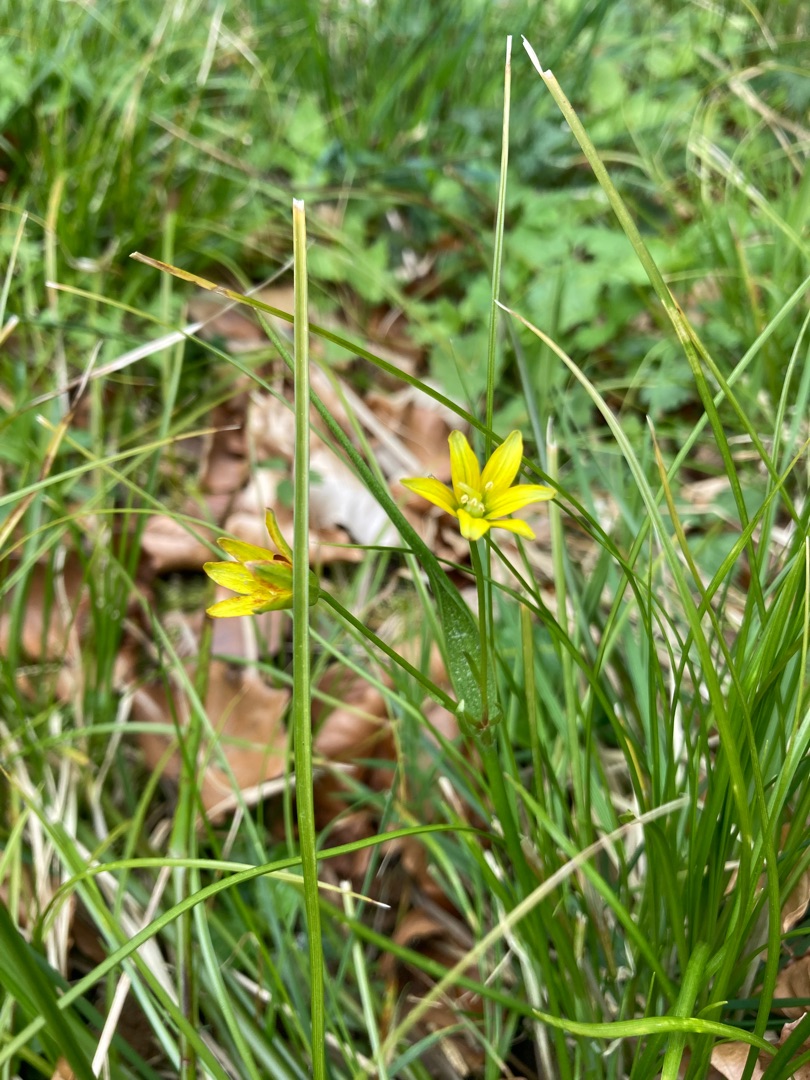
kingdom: Plantae
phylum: Tracheophyta
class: Liliopsida
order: Liliales
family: Liliaceae
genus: Gagea
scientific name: Gagea spathacea
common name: Hylster-guldstjerne
